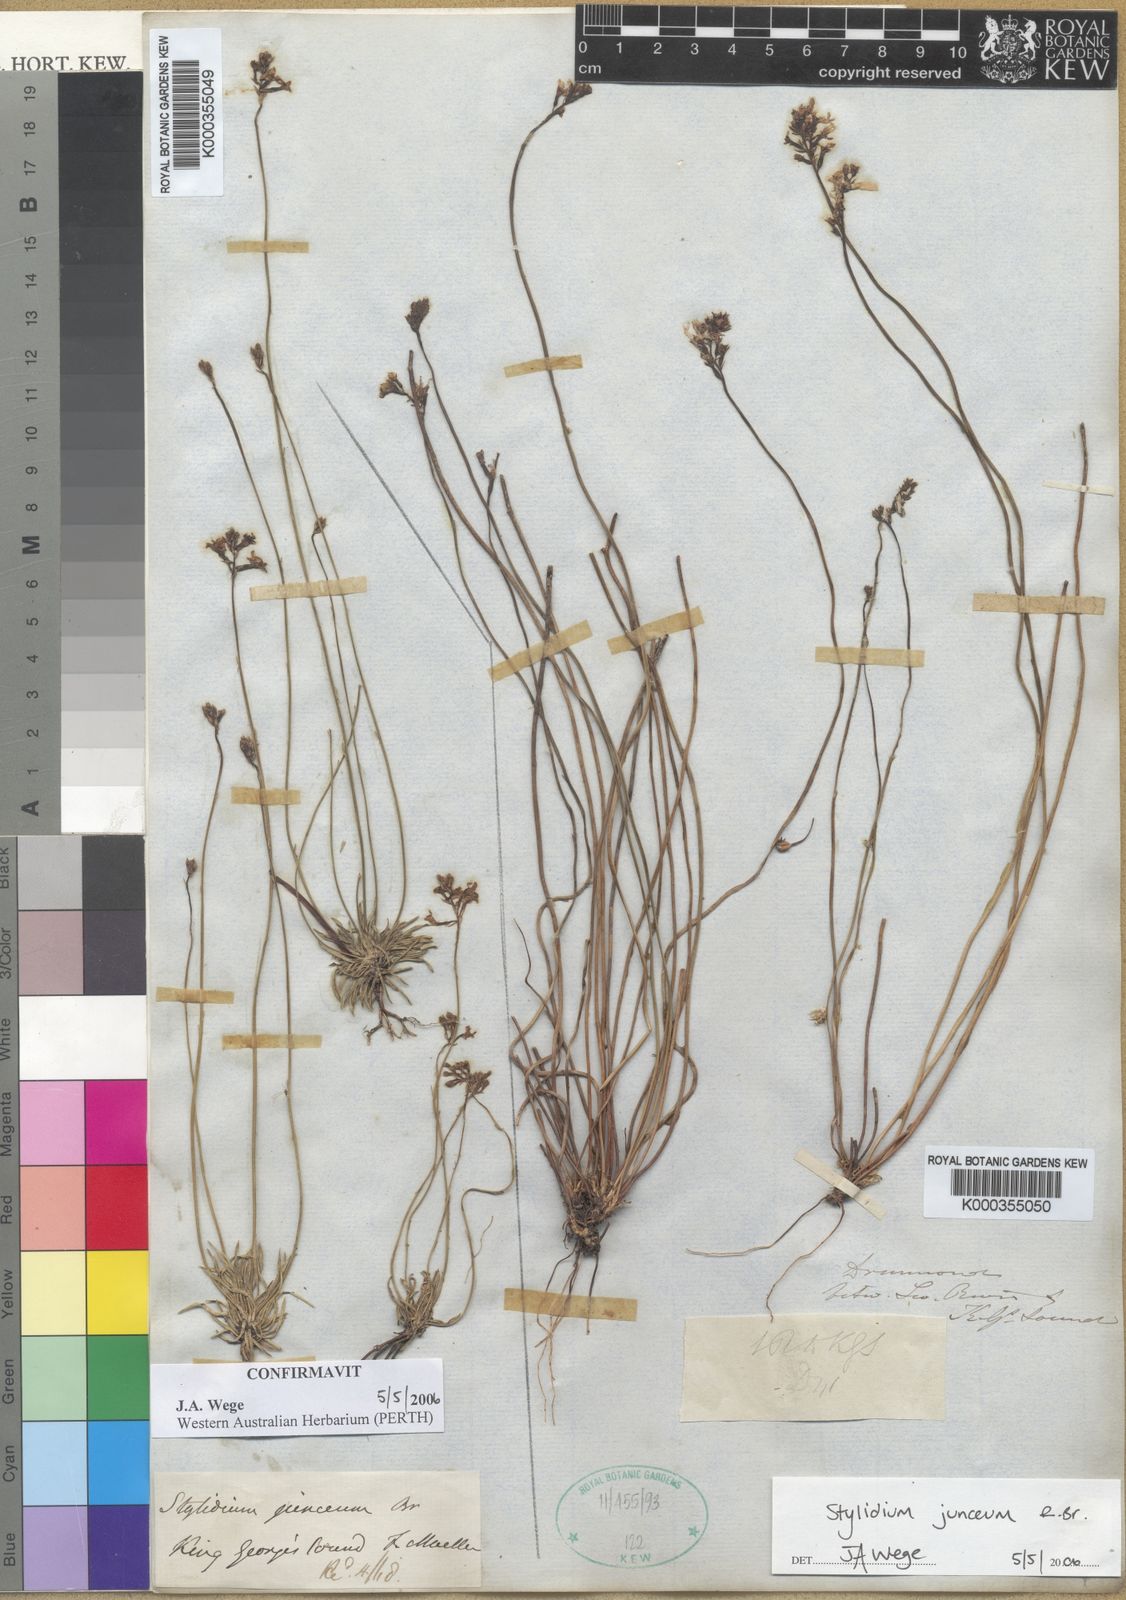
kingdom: Plantae
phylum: Tracheophyta
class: Magnoliopsida
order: Asterales
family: Stylidiaceae
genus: Stylidium
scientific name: Stylidium junceum
